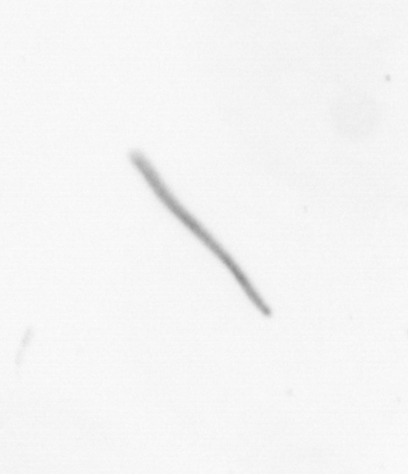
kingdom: Chromista
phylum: Ochrophyta
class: Bacillariophyceae
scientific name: Bacillariophyceae
